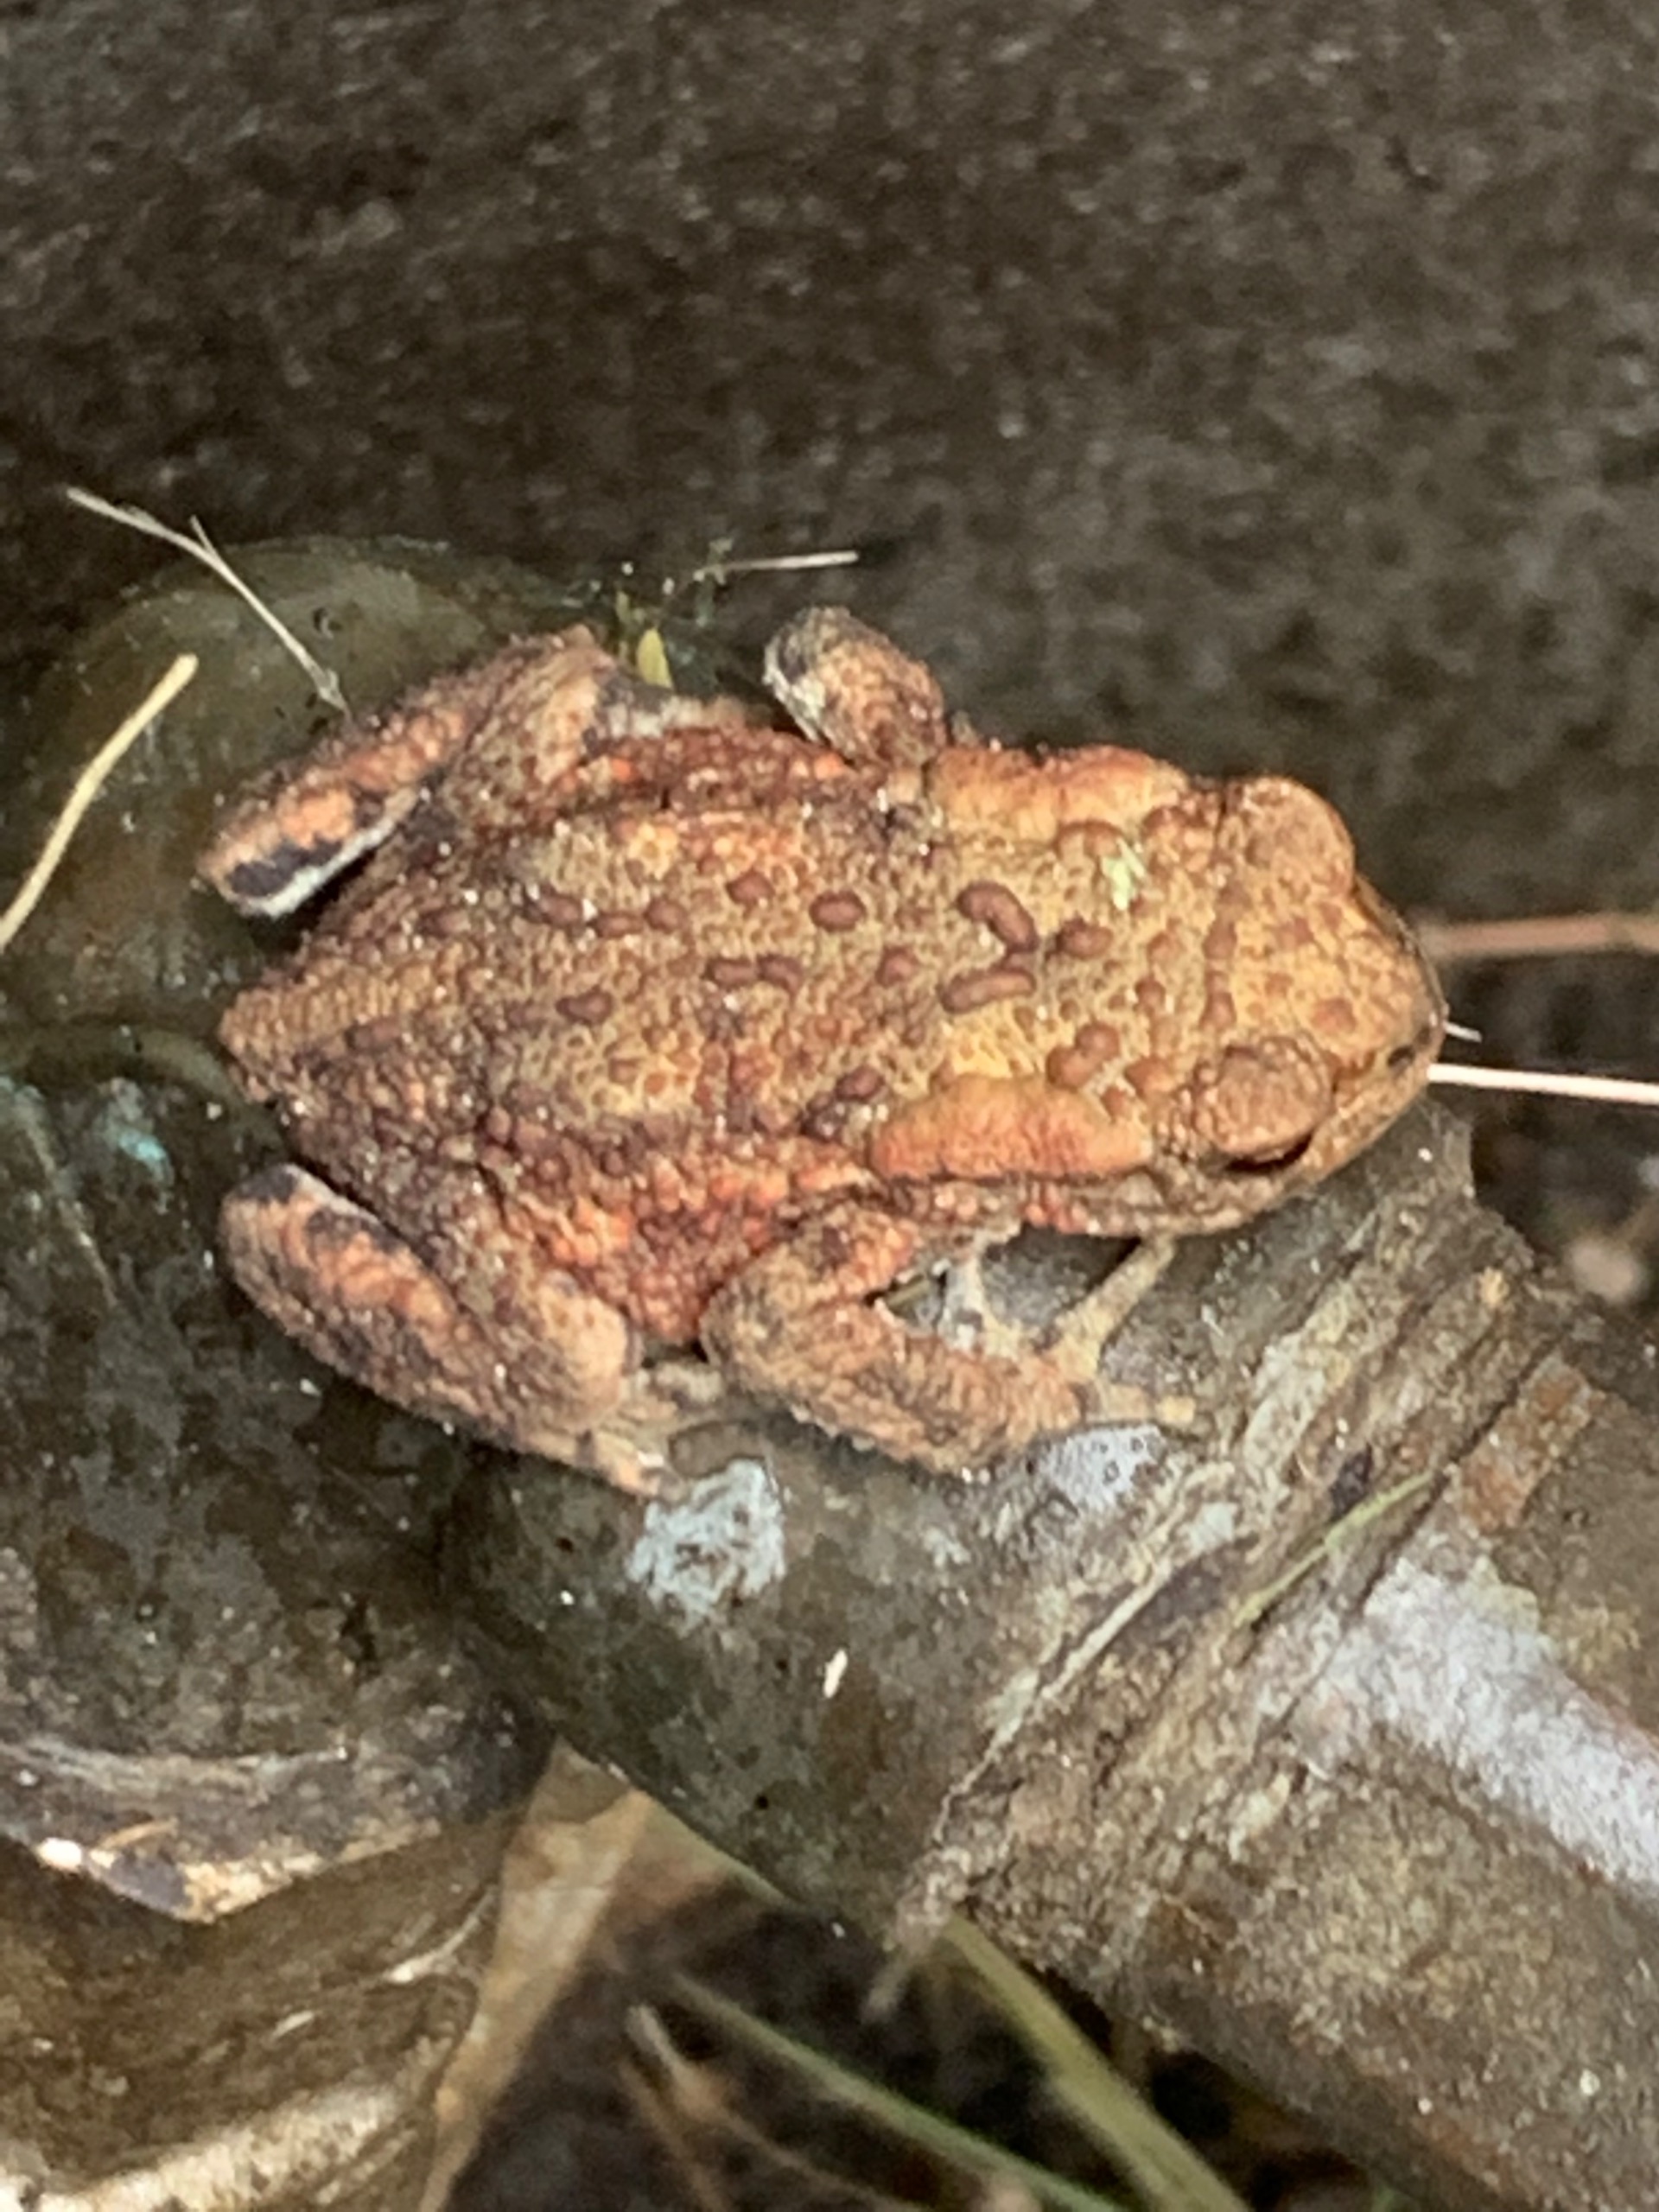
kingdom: Animalia
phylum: Chordata
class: Amphibia
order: Anura
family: Bufonidae
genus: Bufo
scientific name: Bufo bufo
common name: Skrubtudse
